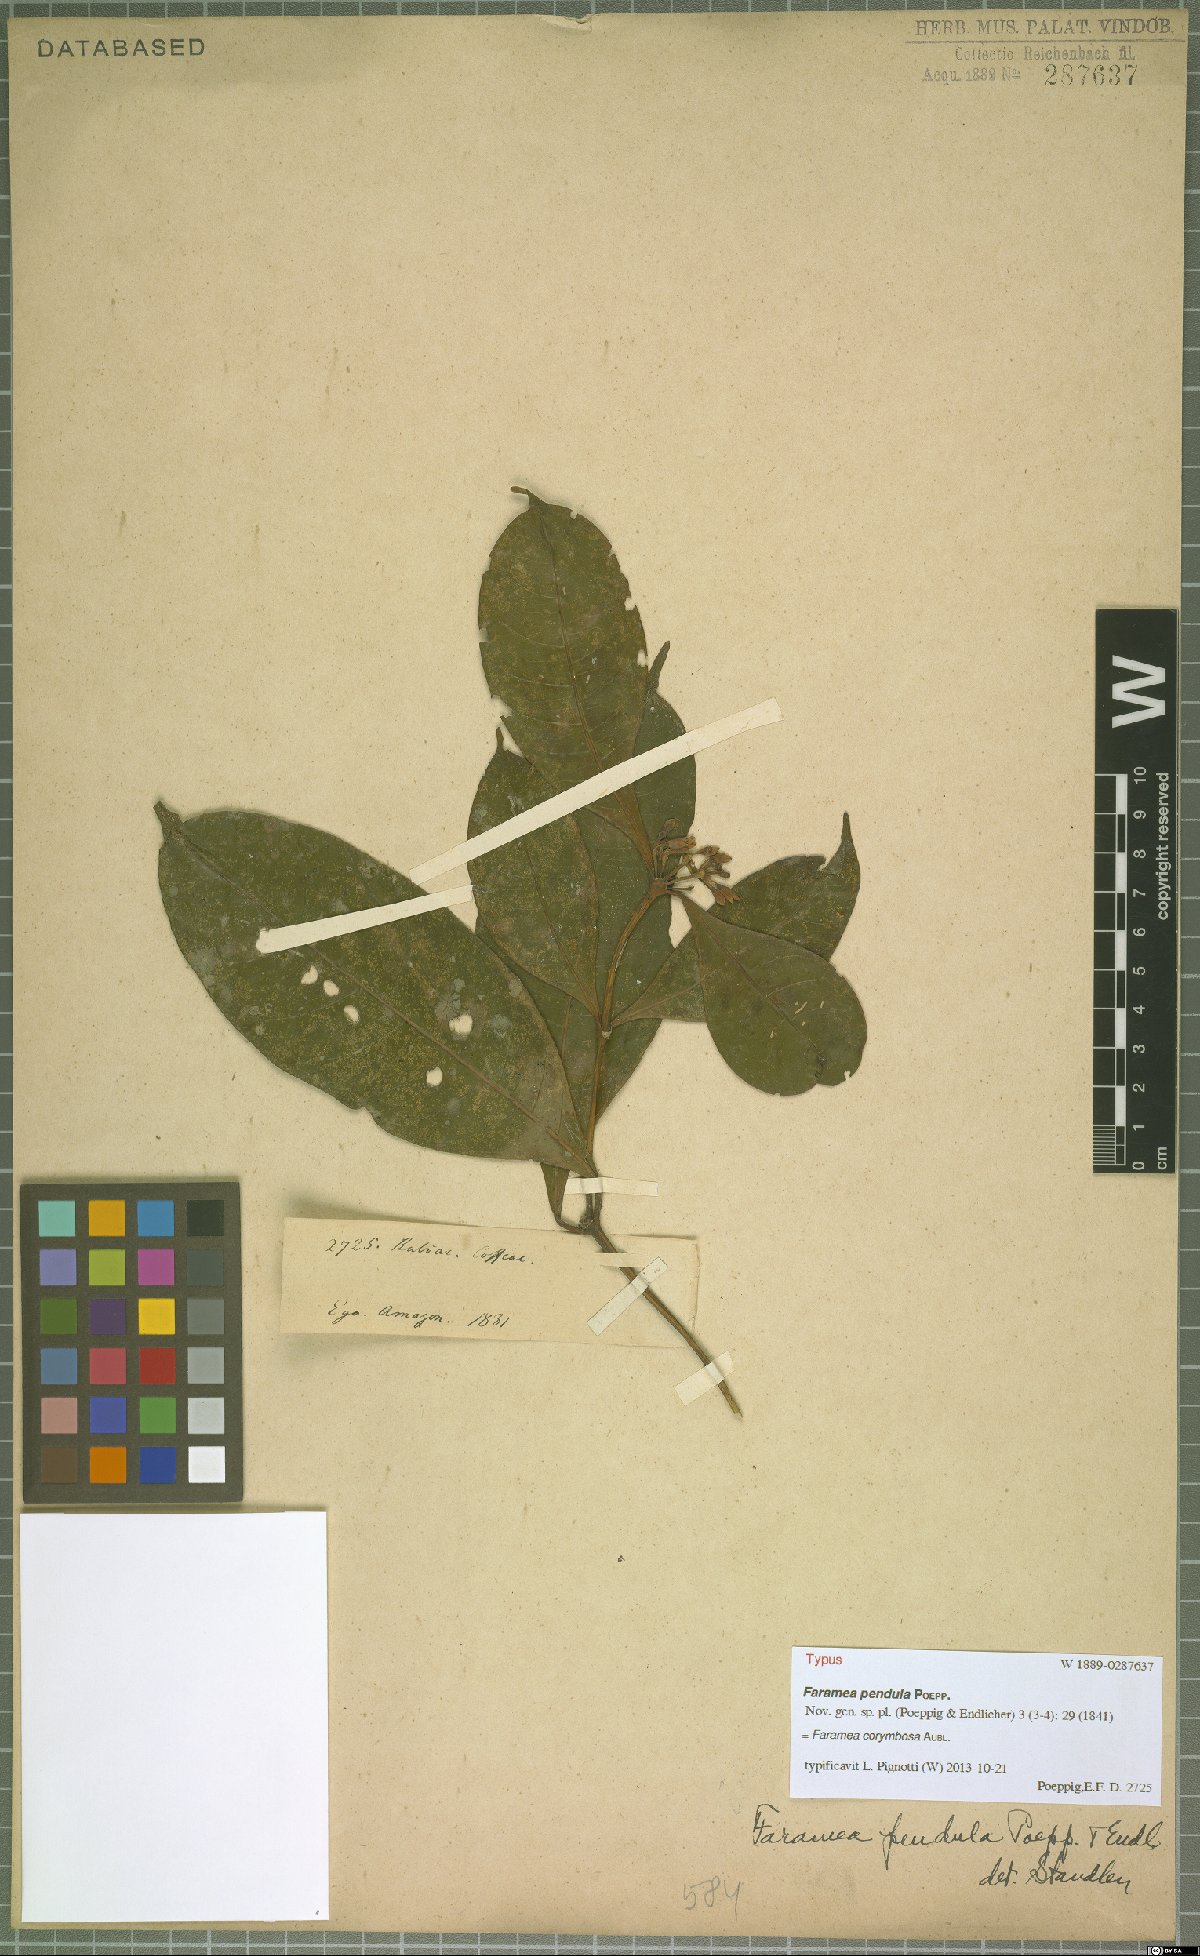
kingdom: Plantae
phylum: Tracheophyta
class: Magnoliopsida
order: Gentianales
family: Rubiaceae
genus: Faramea
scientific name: Faramea corymbosa
